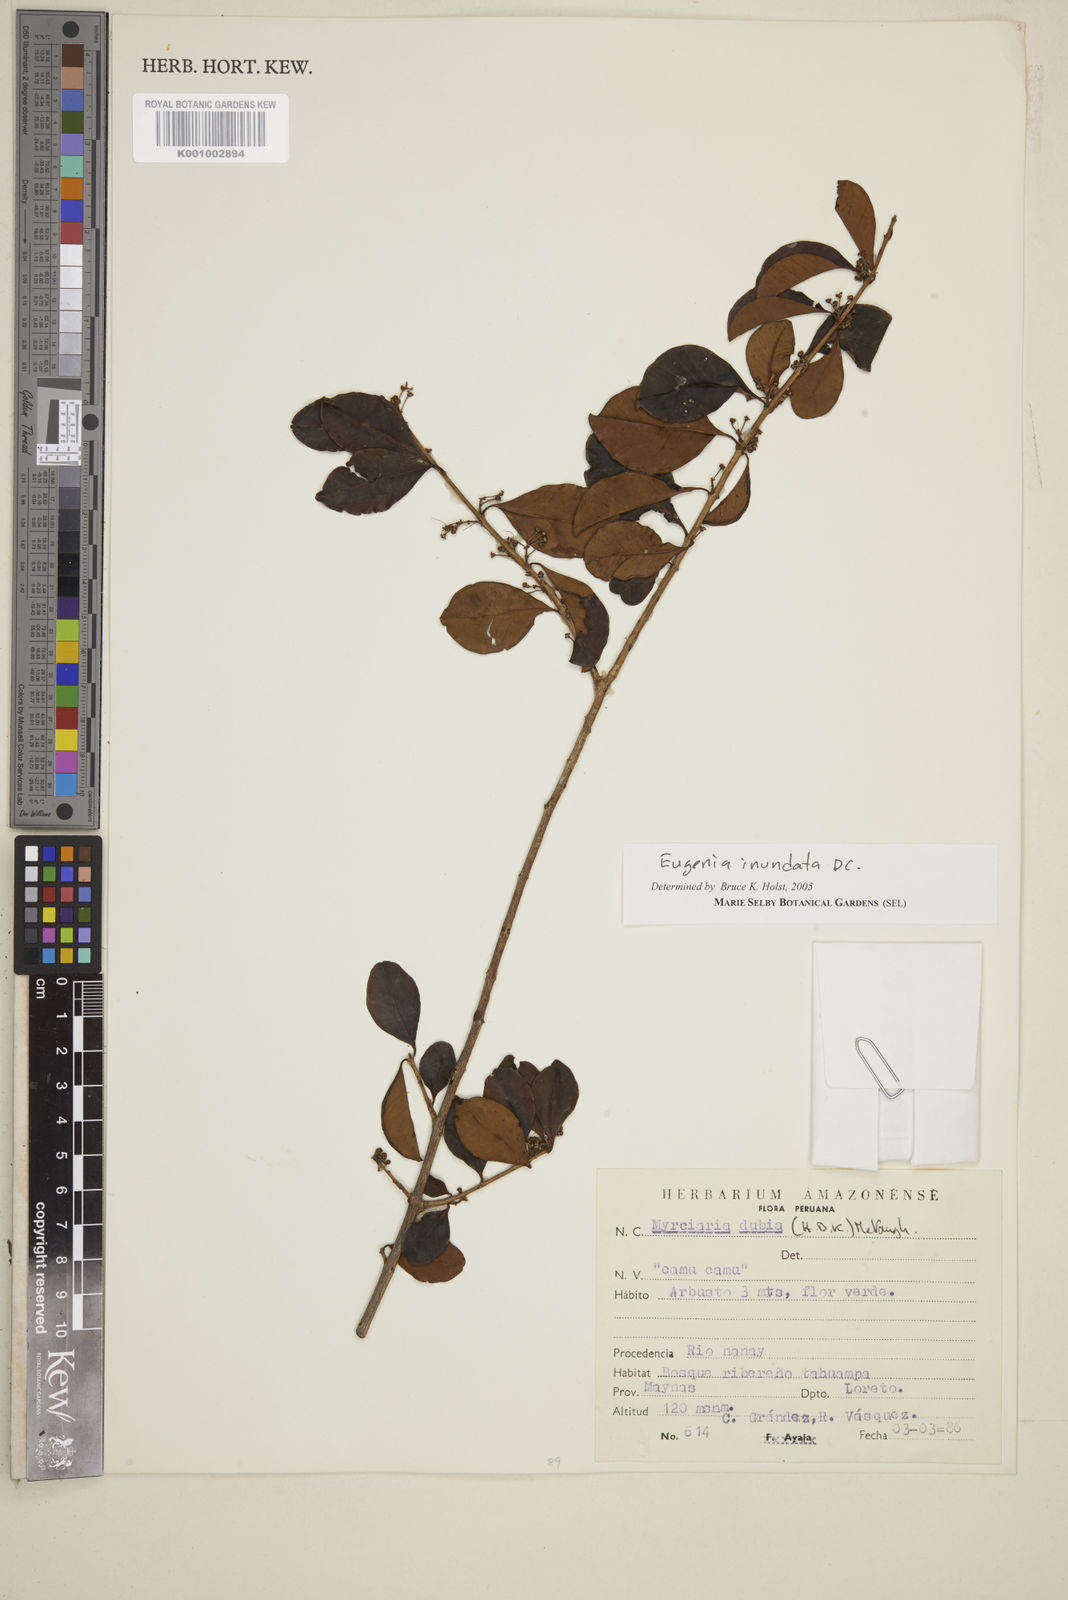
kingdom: Plantae
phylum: Tracheophyta
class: Magnoliopsida
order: Myrtales
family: Myrtaceae
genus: Eugenia
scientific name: Eugenia inundata
